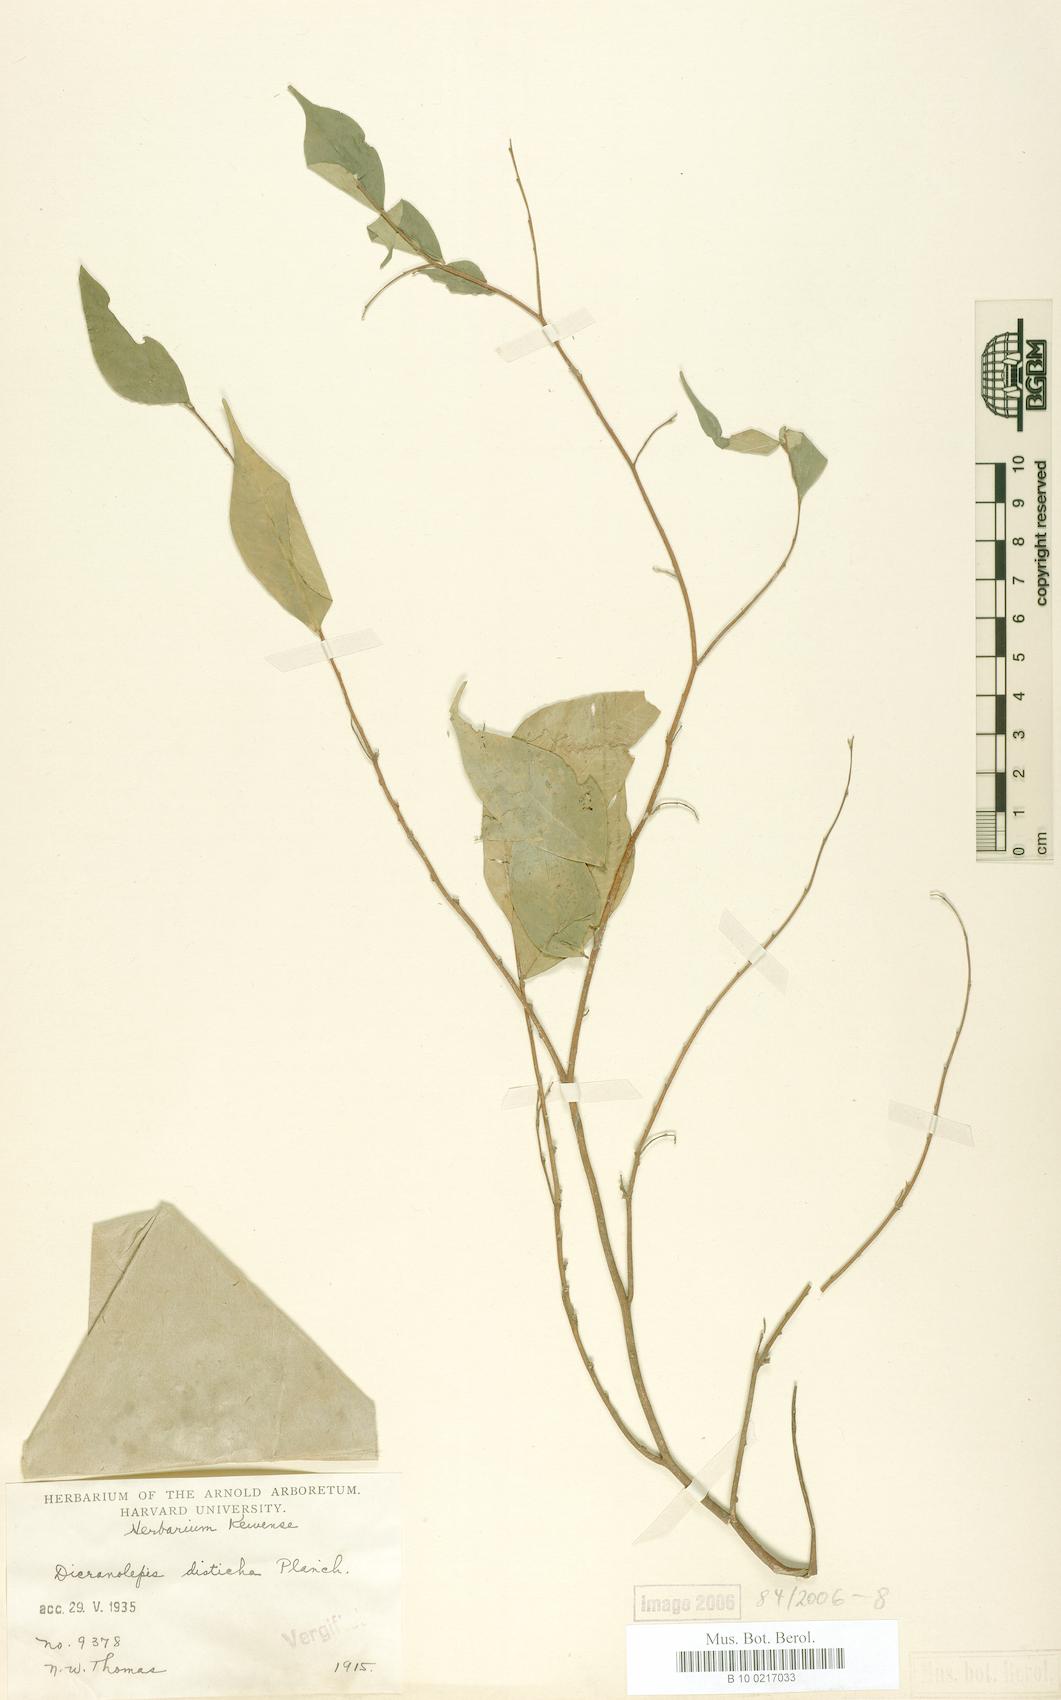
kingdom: Plantae
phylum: Tracheophyta
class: Magnoliopsida
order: Malvales
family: Thymelaeaceae
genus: Dicranolepis
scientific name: Dicranolepis disticha
